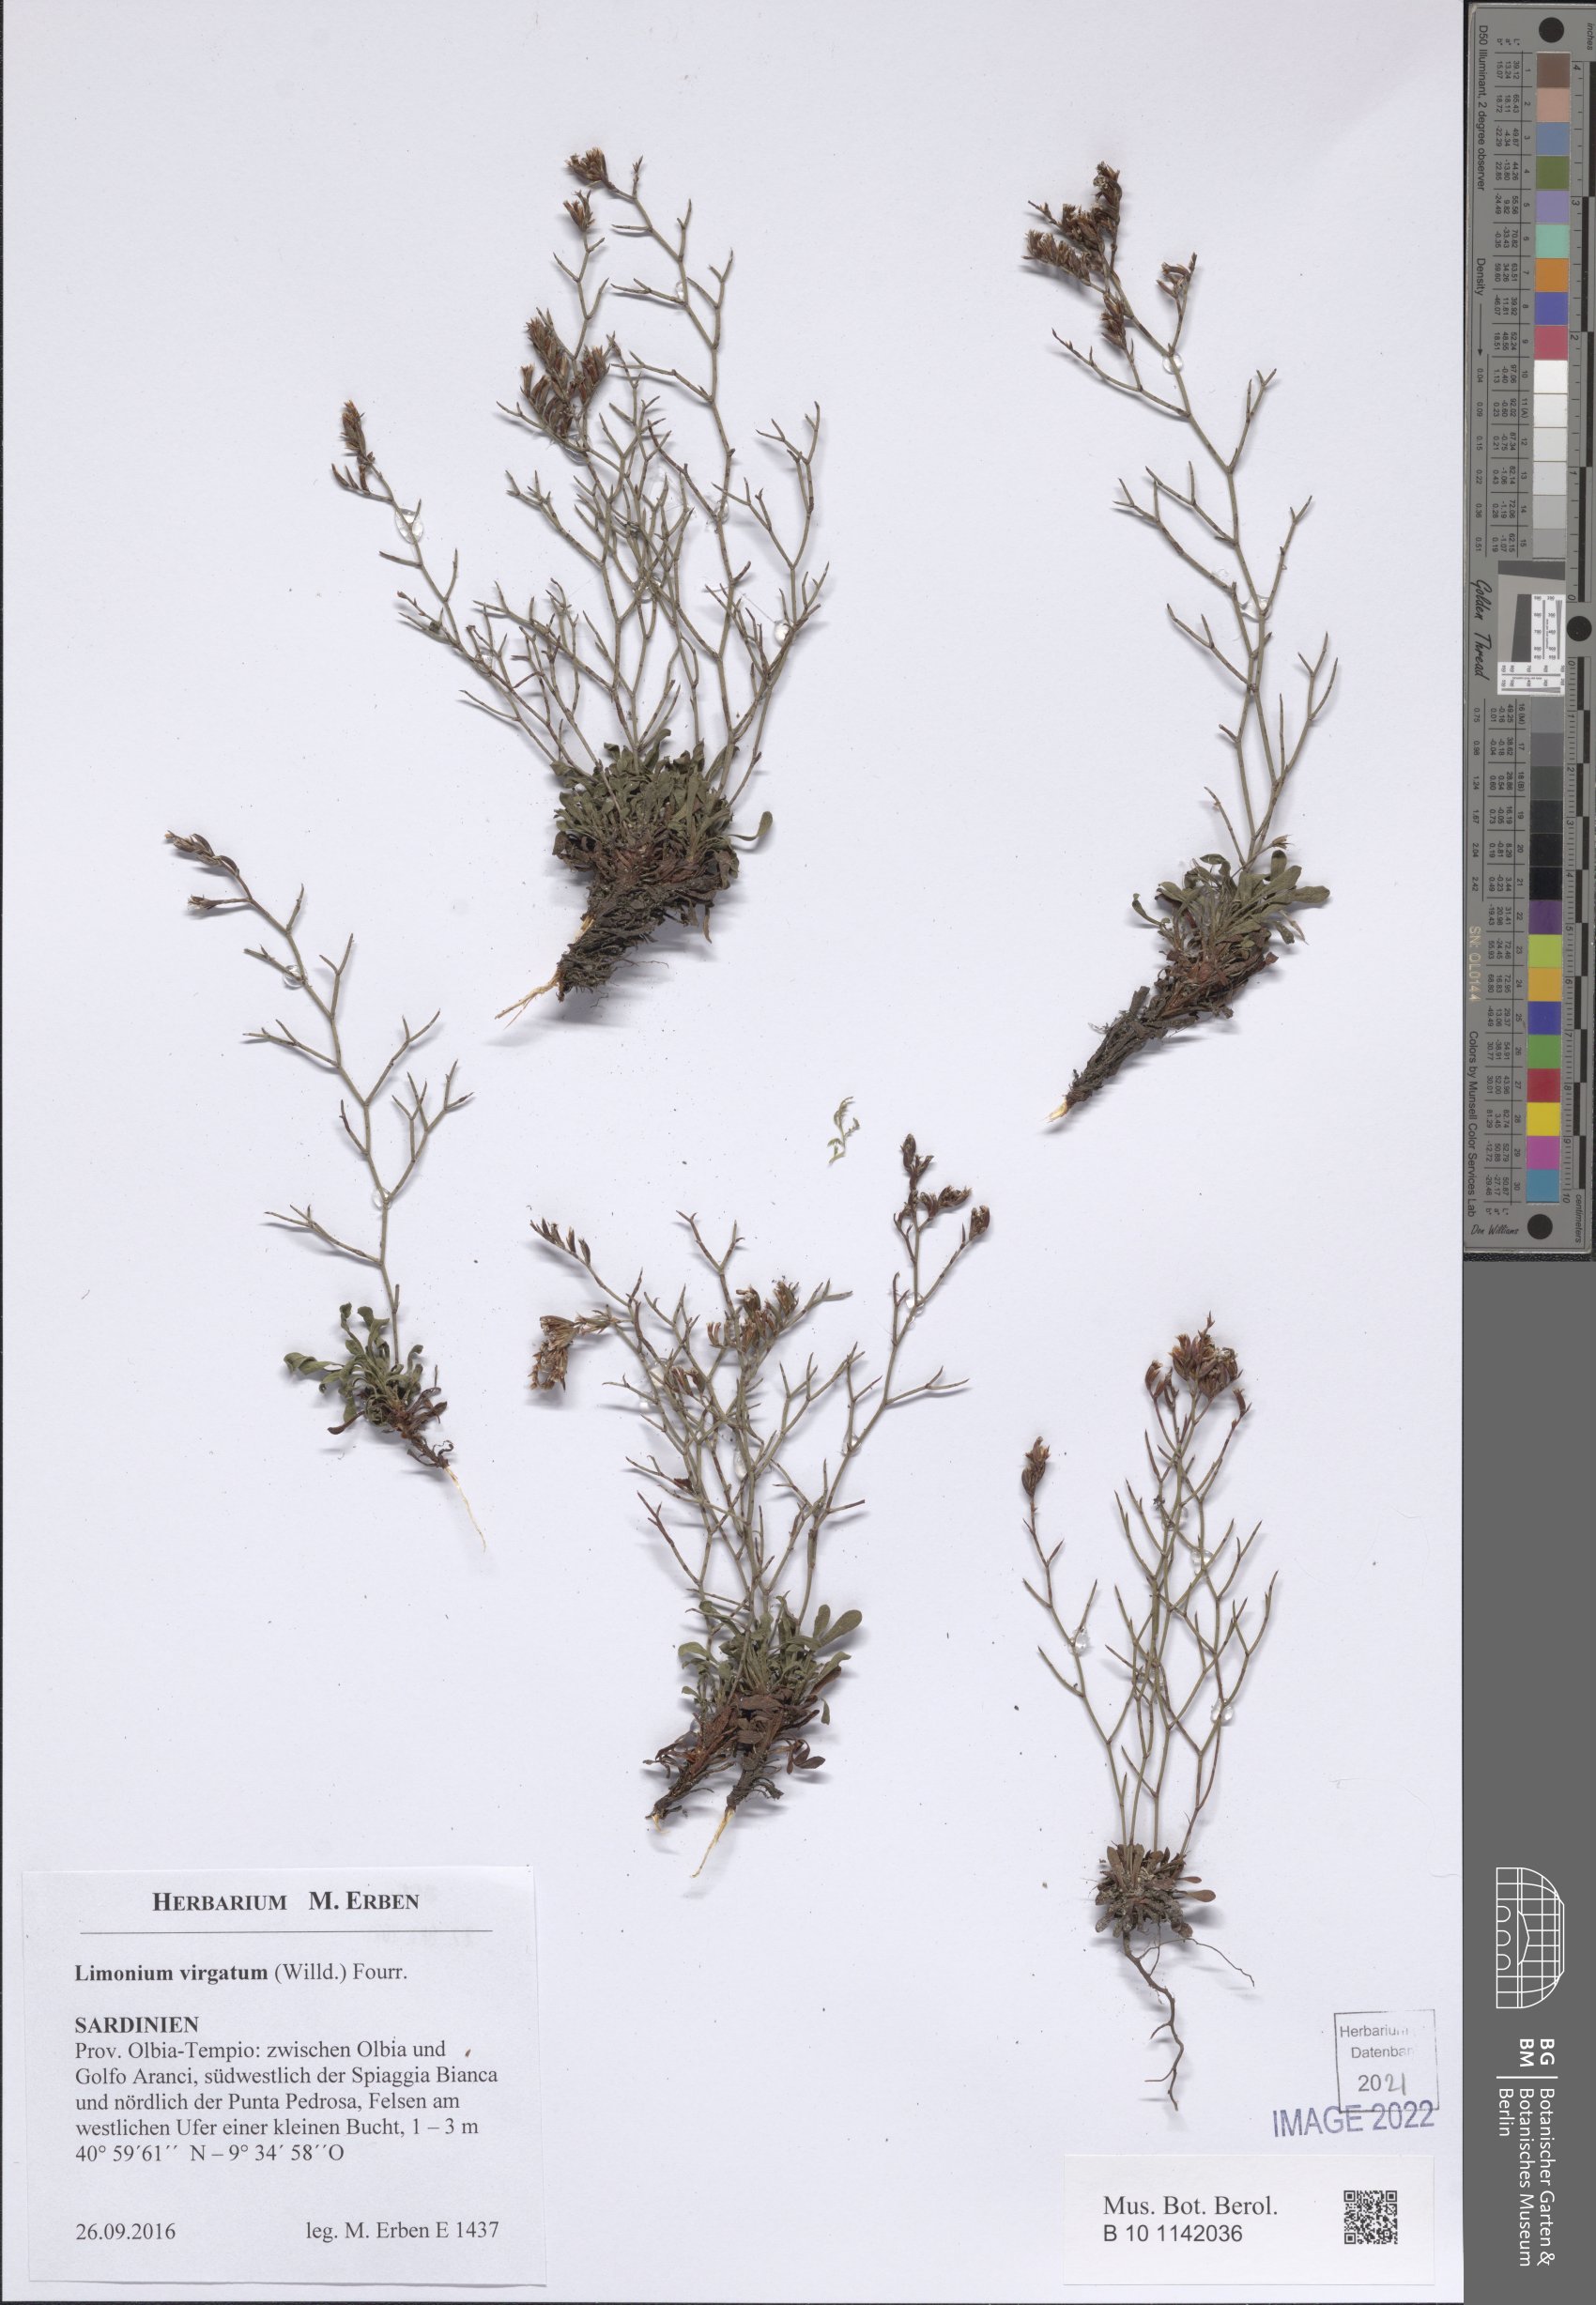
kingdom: Plantae
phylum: Tracheophyta
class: Magnoliopsida
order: Caryophyllales
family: Plumbaginaceae
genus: Limonium
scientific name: Limonium virgatum
